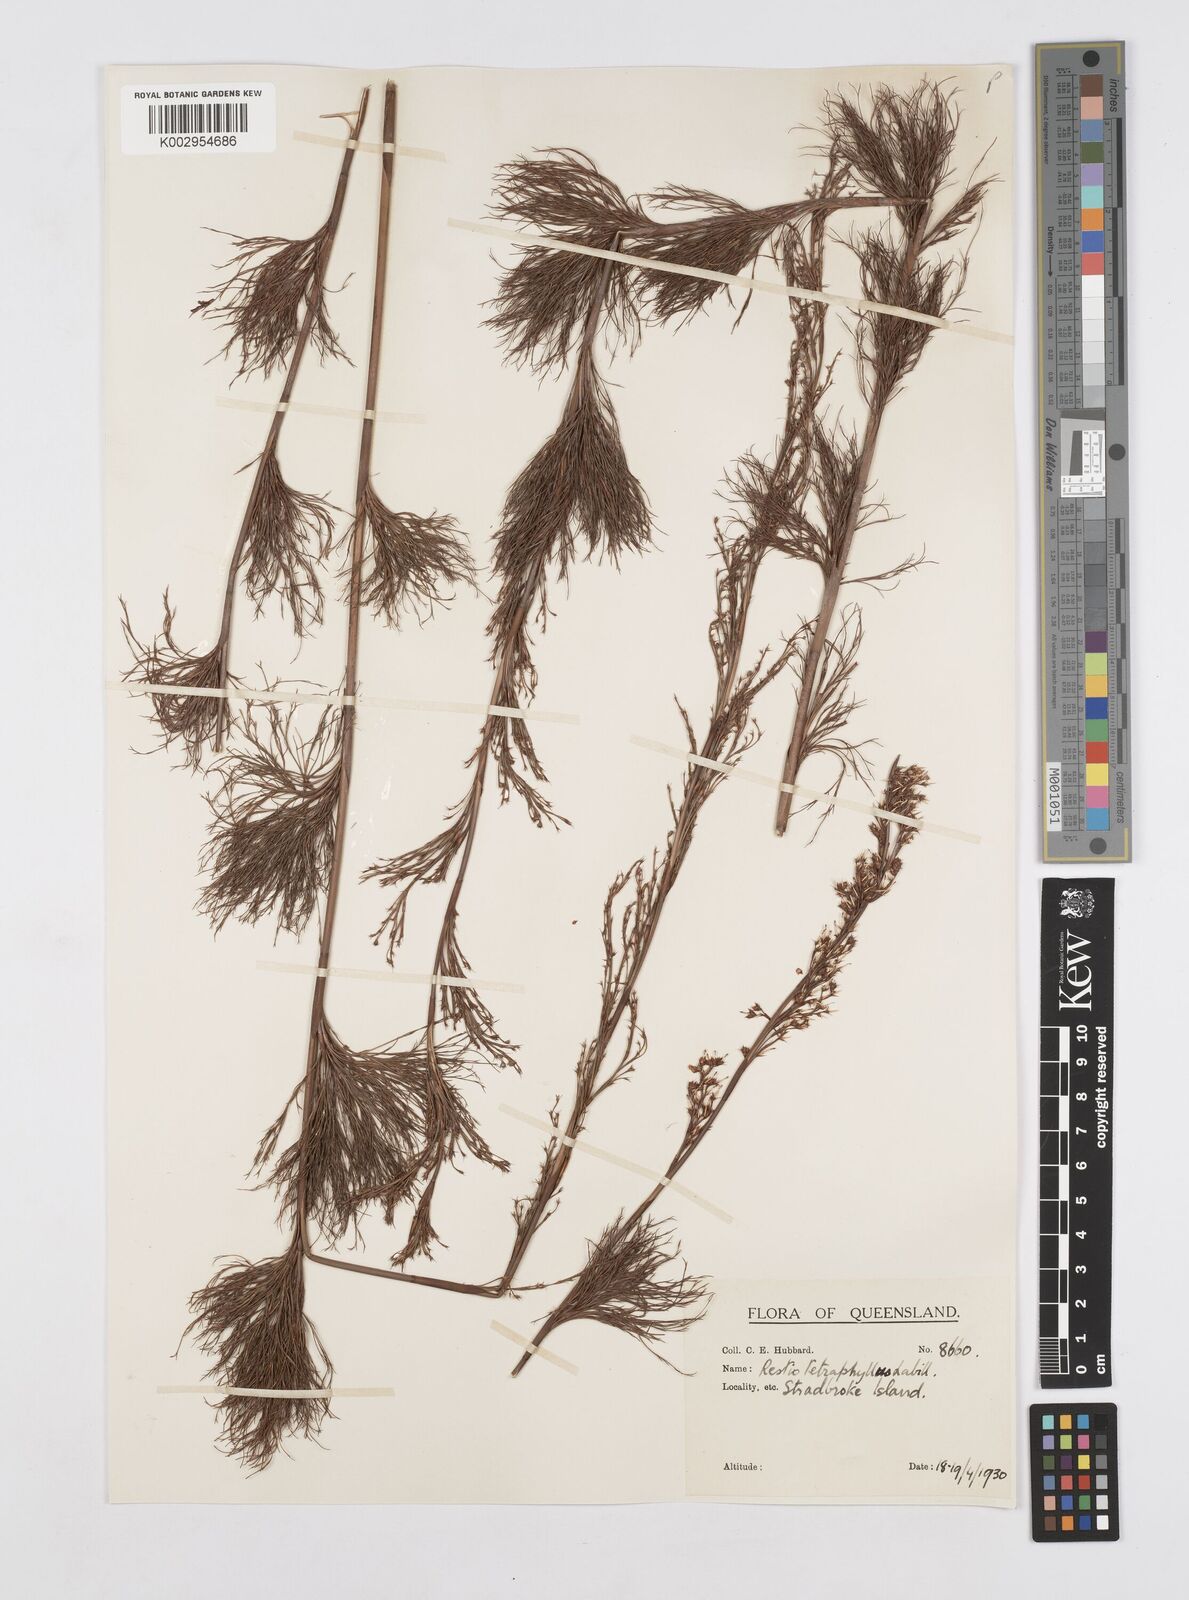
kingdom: Plantae
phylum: Tracheophyta
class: Liliopsida
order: Poales
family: Restionaceae
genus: Baloskion
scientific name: Baloskion tetraphyllum
